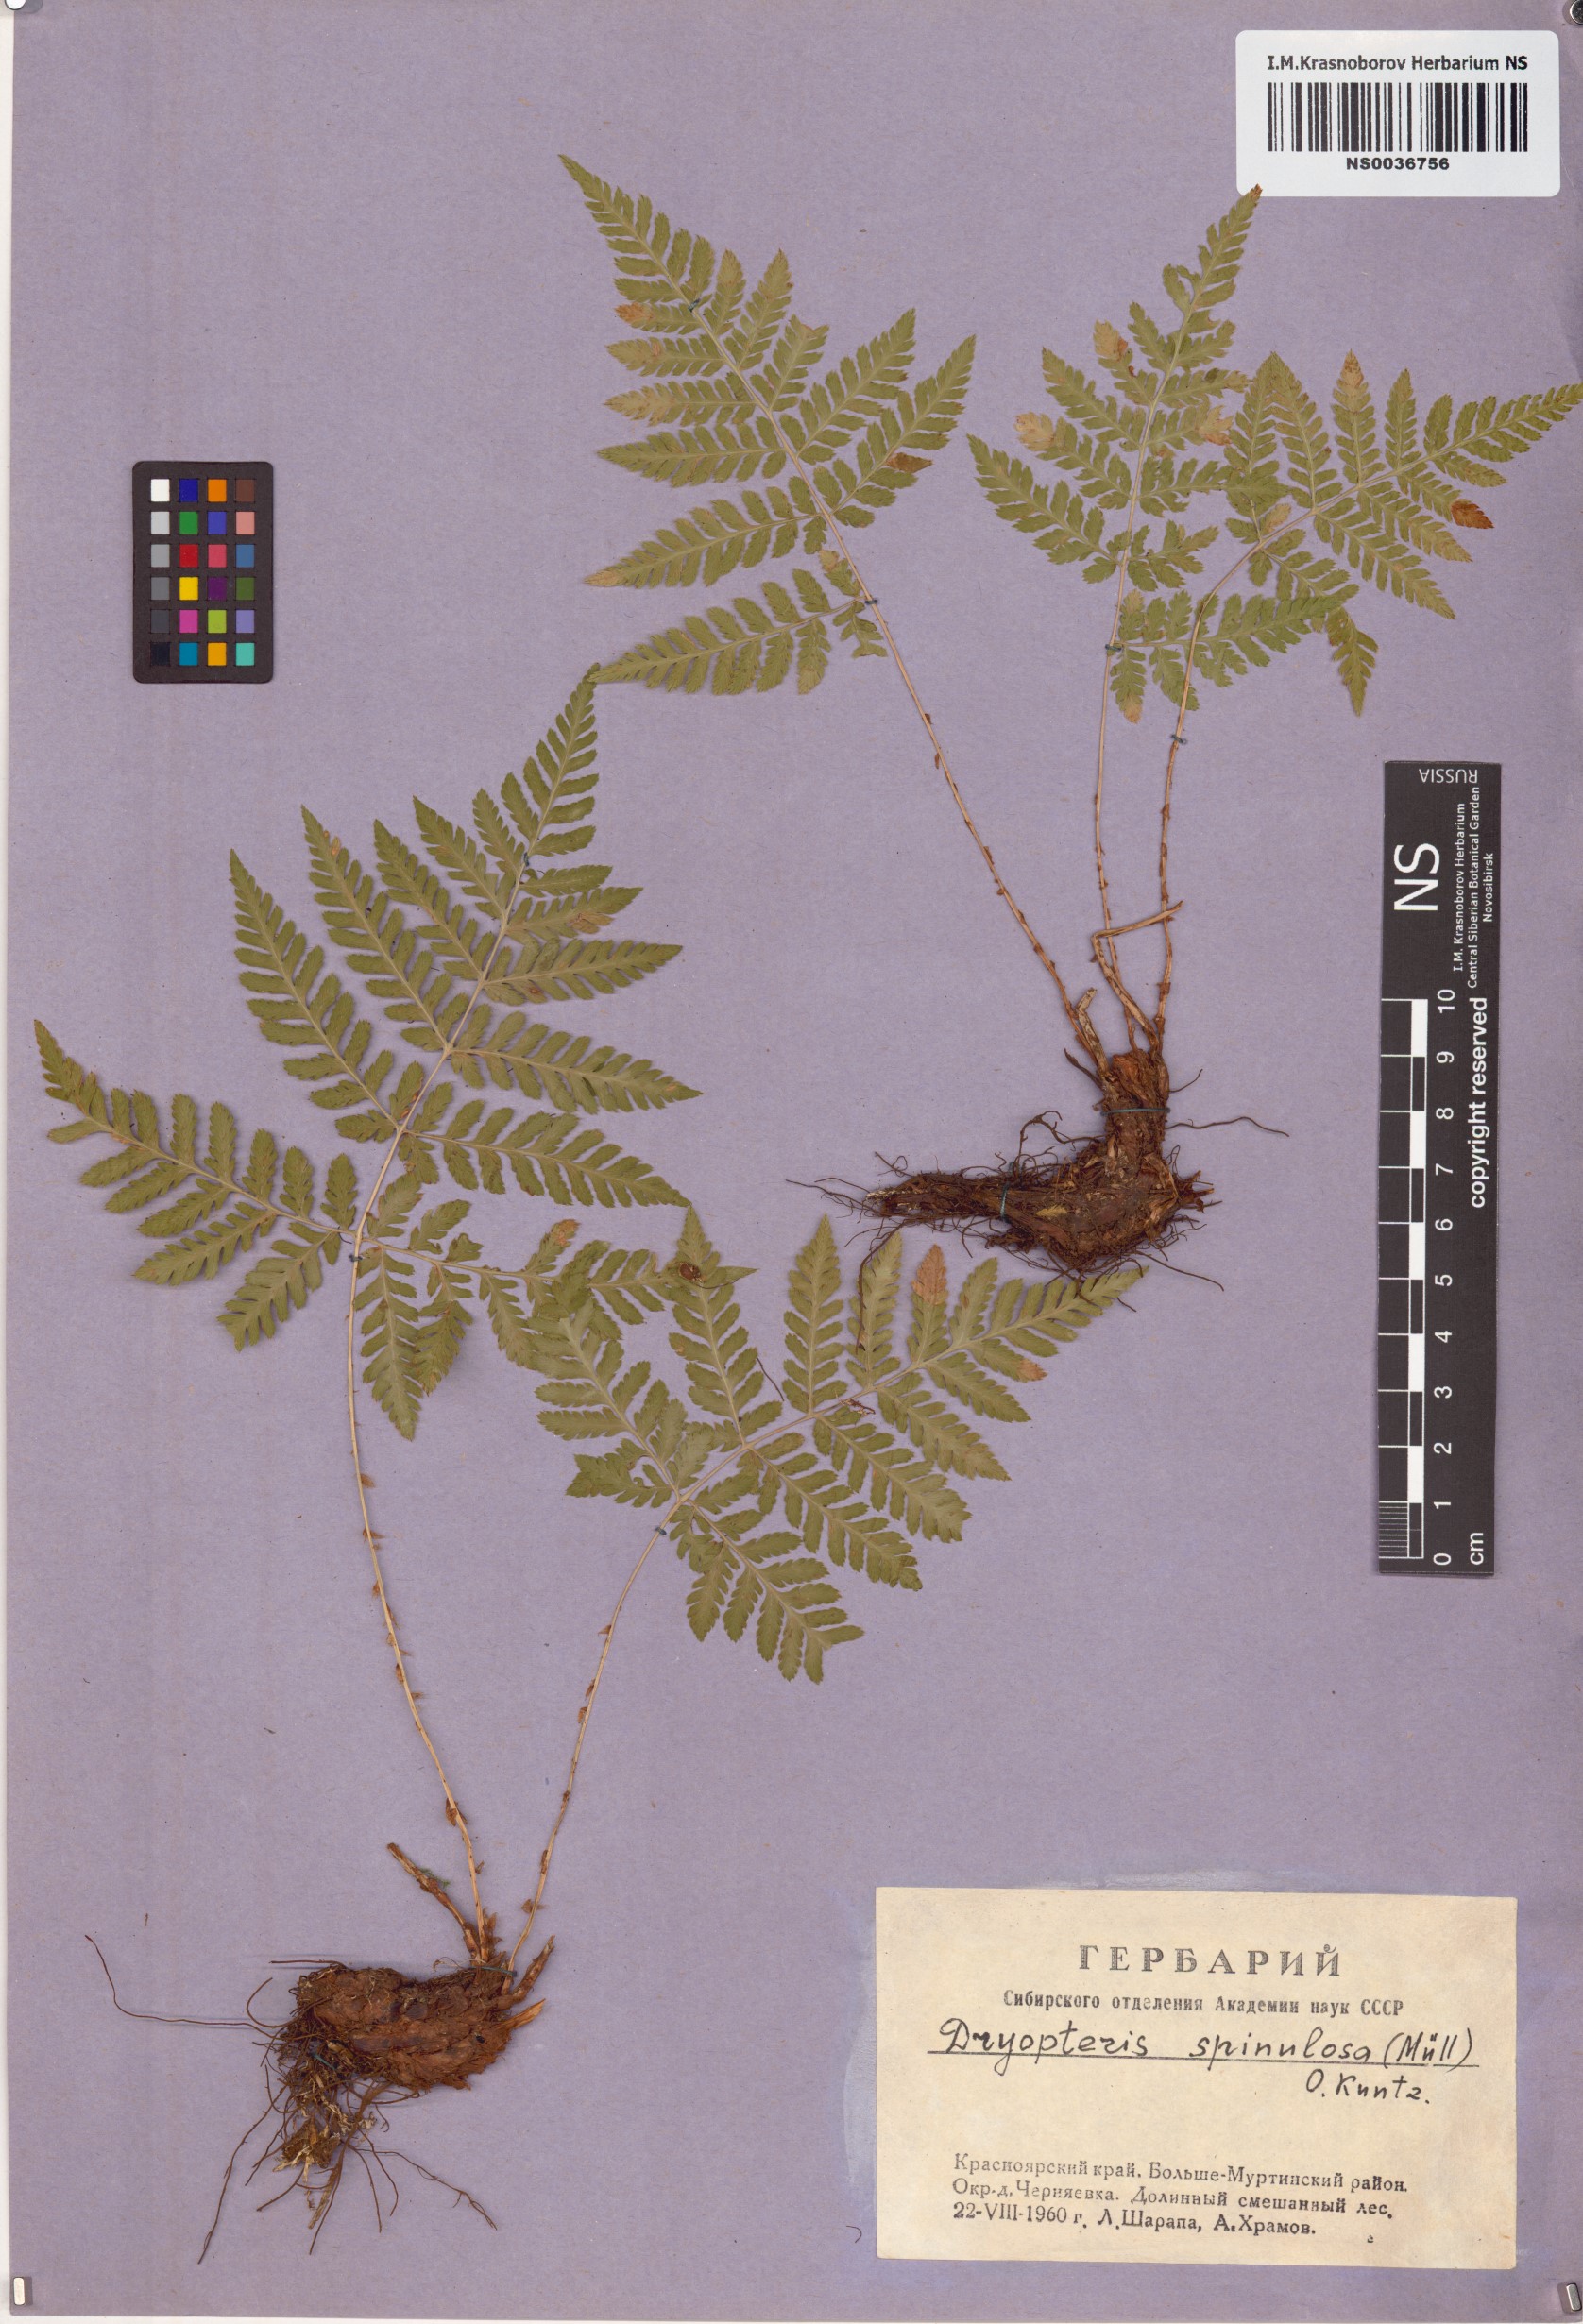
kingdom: Plantae
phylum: Tracheophyta
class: Polypodiopsida
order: Polypodiales
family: Dryopteridaceae
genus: Dryopteris
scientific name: Dryopteris carthusiana
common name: Narrow buckler-fern
